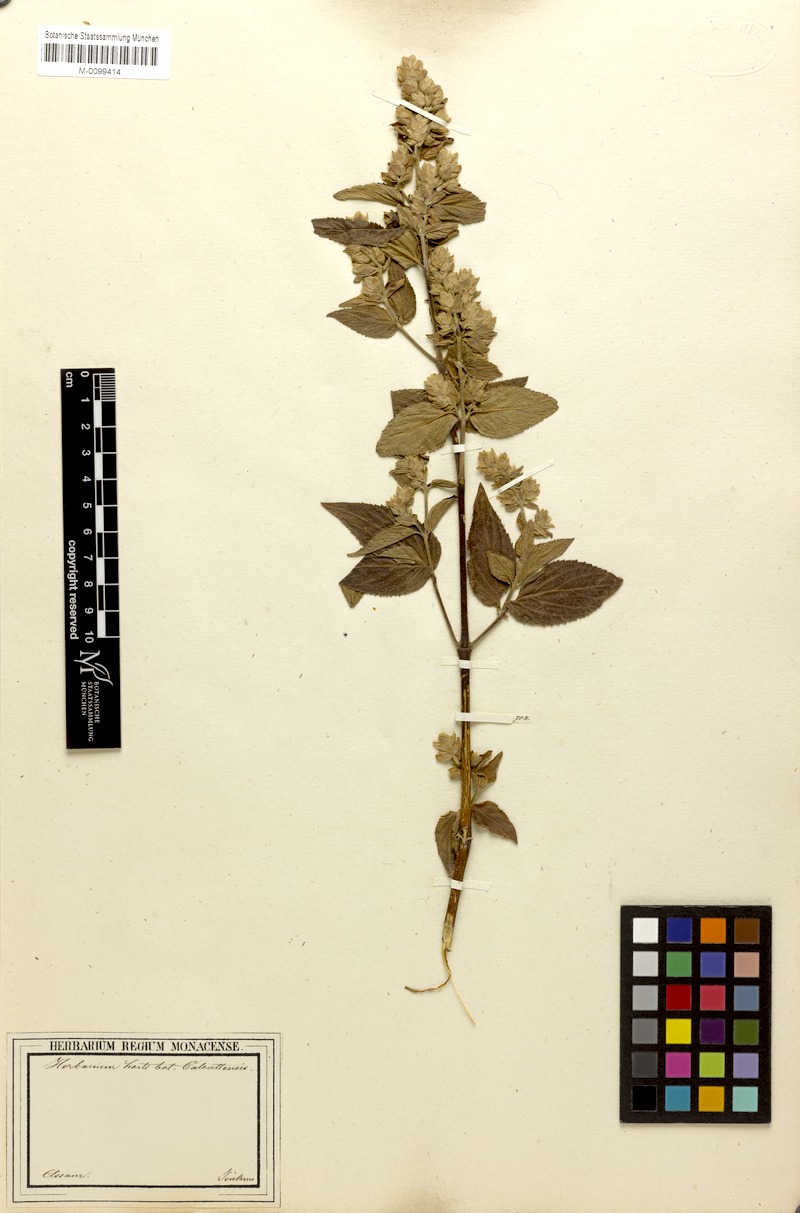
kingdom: Plantae
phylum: Tracheophyta
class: Magnoliopsida
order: Lamiales
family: Lamiaceae
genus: Pogostemon
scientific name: Pogostemon parviflorus
